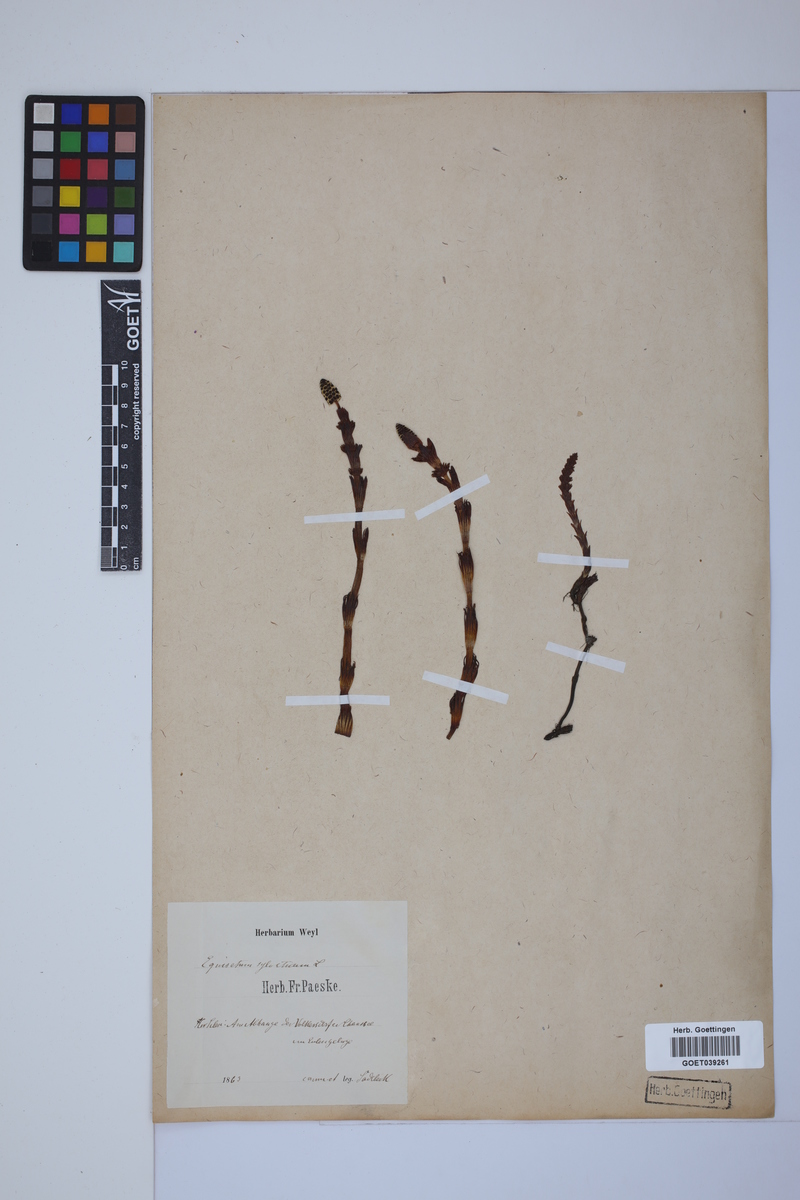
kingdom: Plantae
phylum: Tracheophyta
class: Polypodiopsida
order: Equisetales
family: Equisetaceae
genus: Equisetum
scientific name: Equisetum sylvaticum
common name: Wood horsetail
